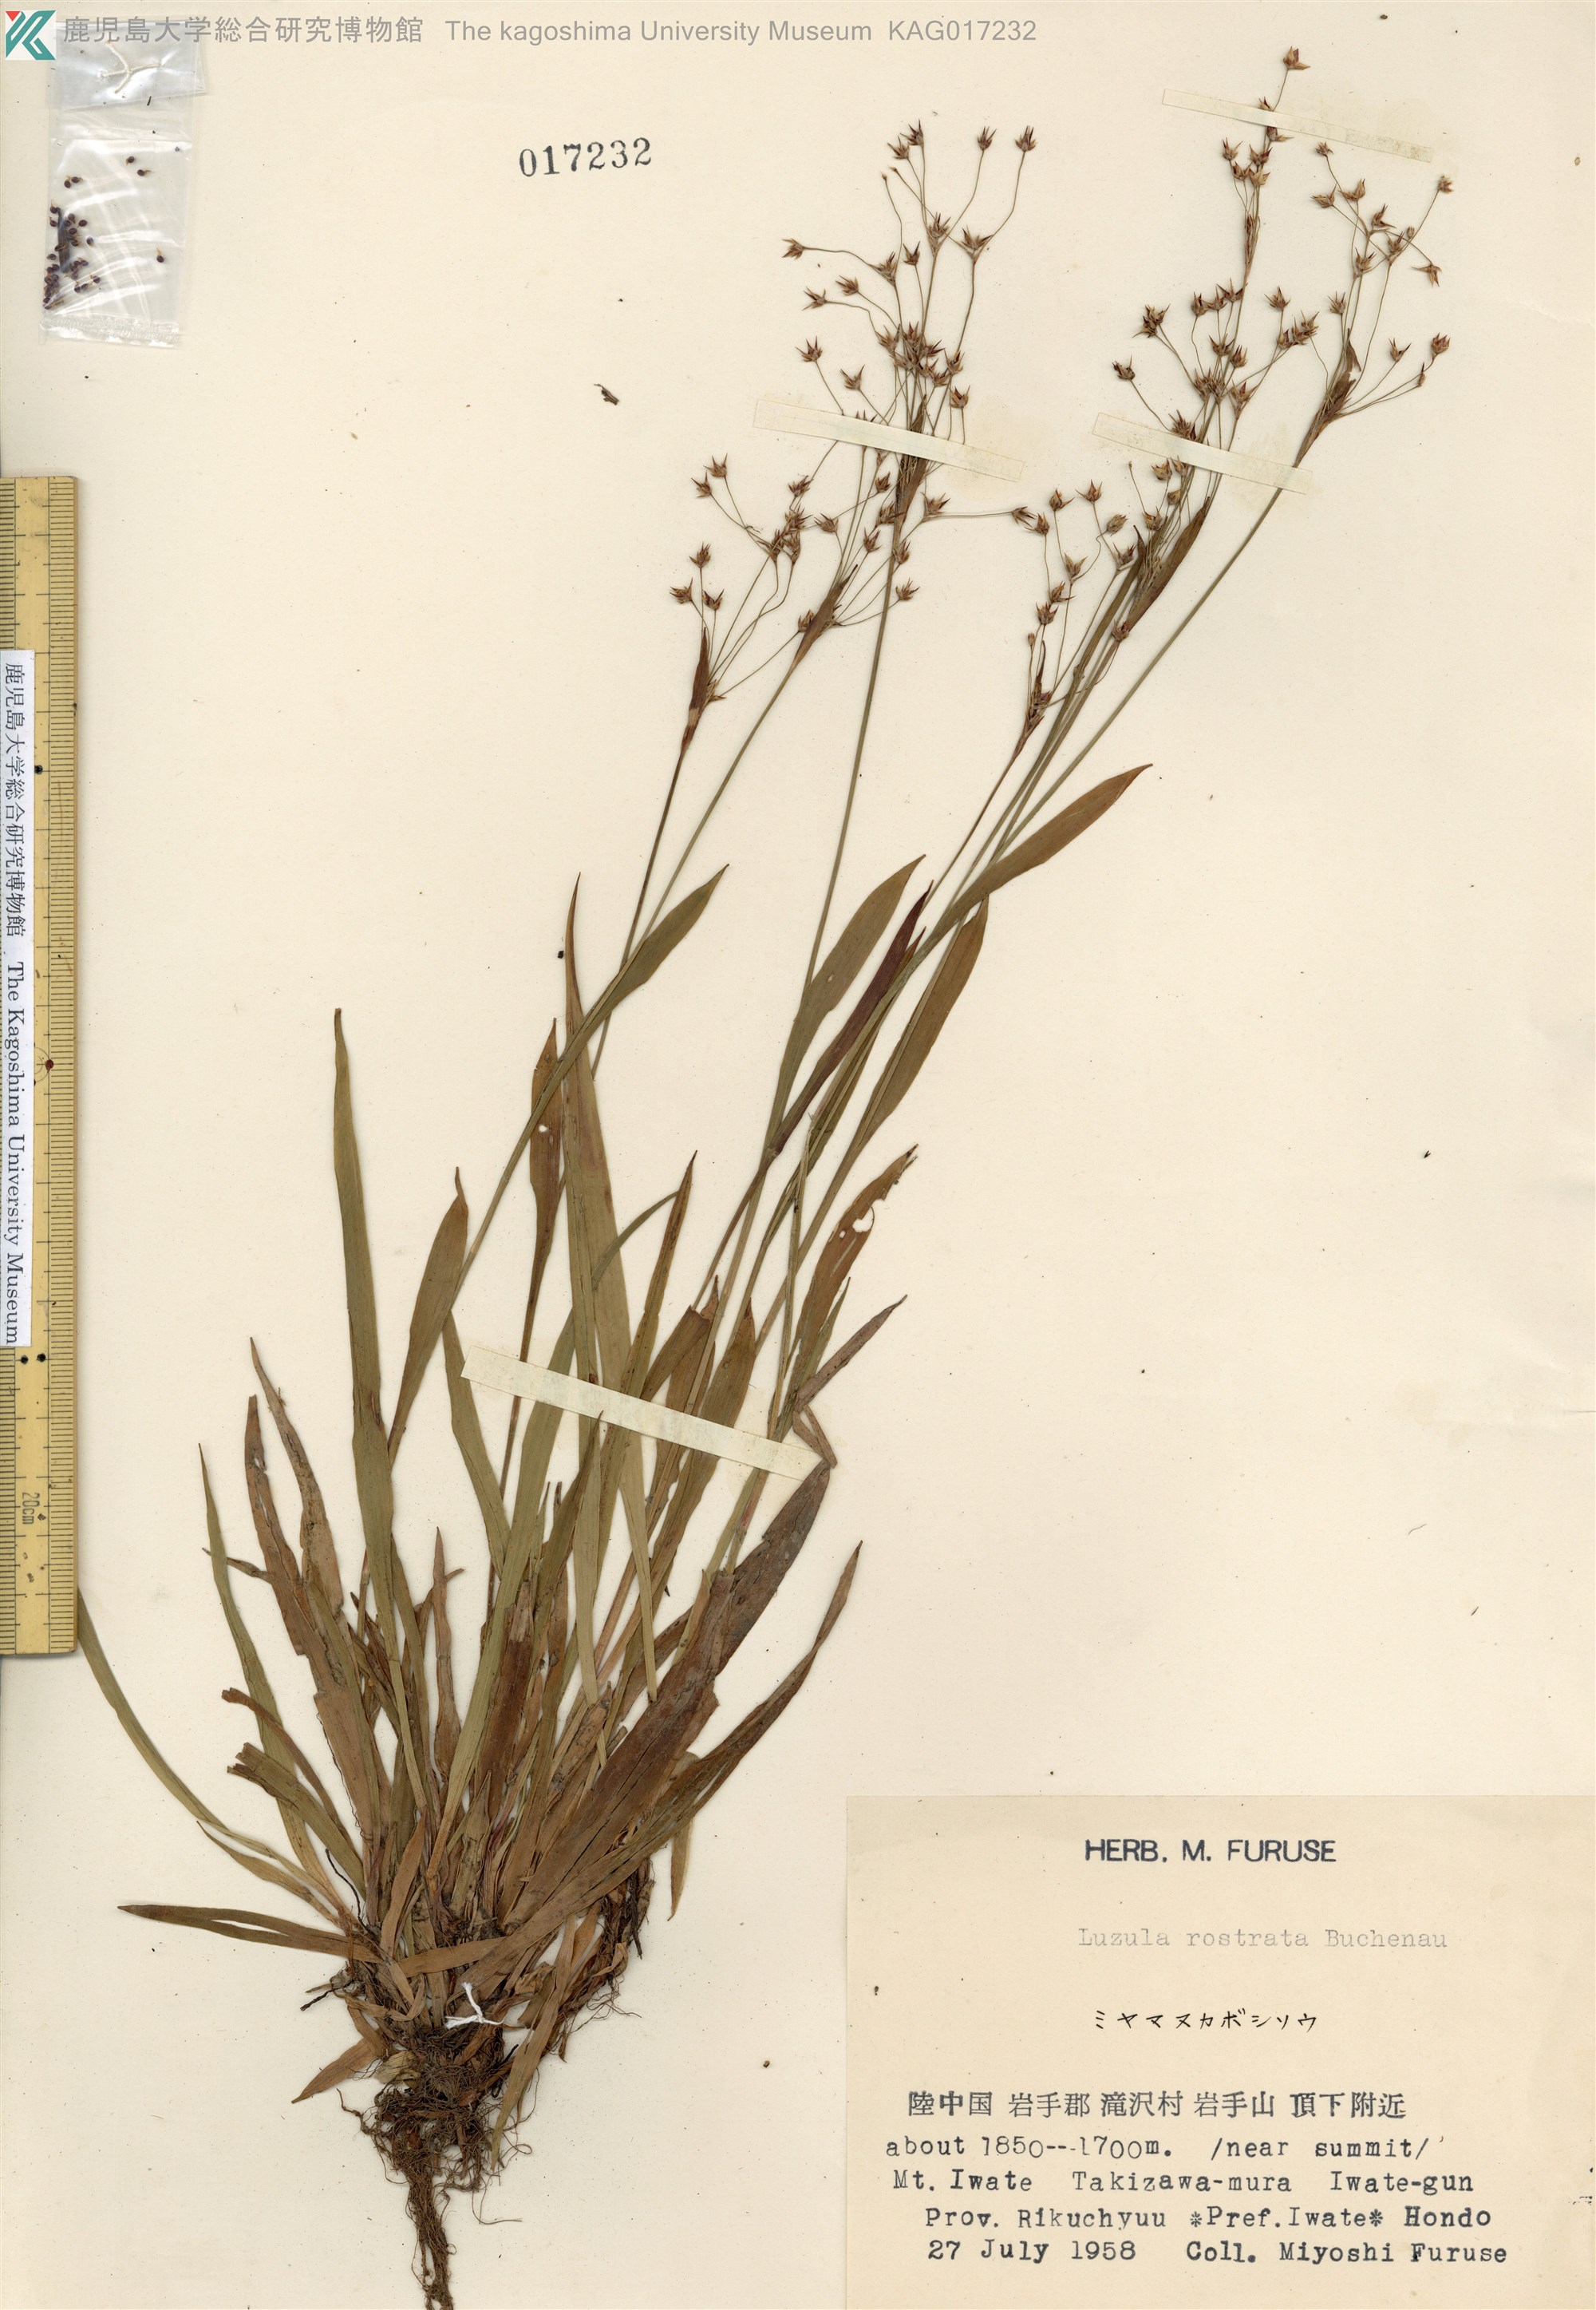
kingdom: Plantae
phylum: Tracheophyta
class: Liliopsida
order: Poales
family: Juncaceae
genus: Luzula
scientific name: Luzula jimboi
